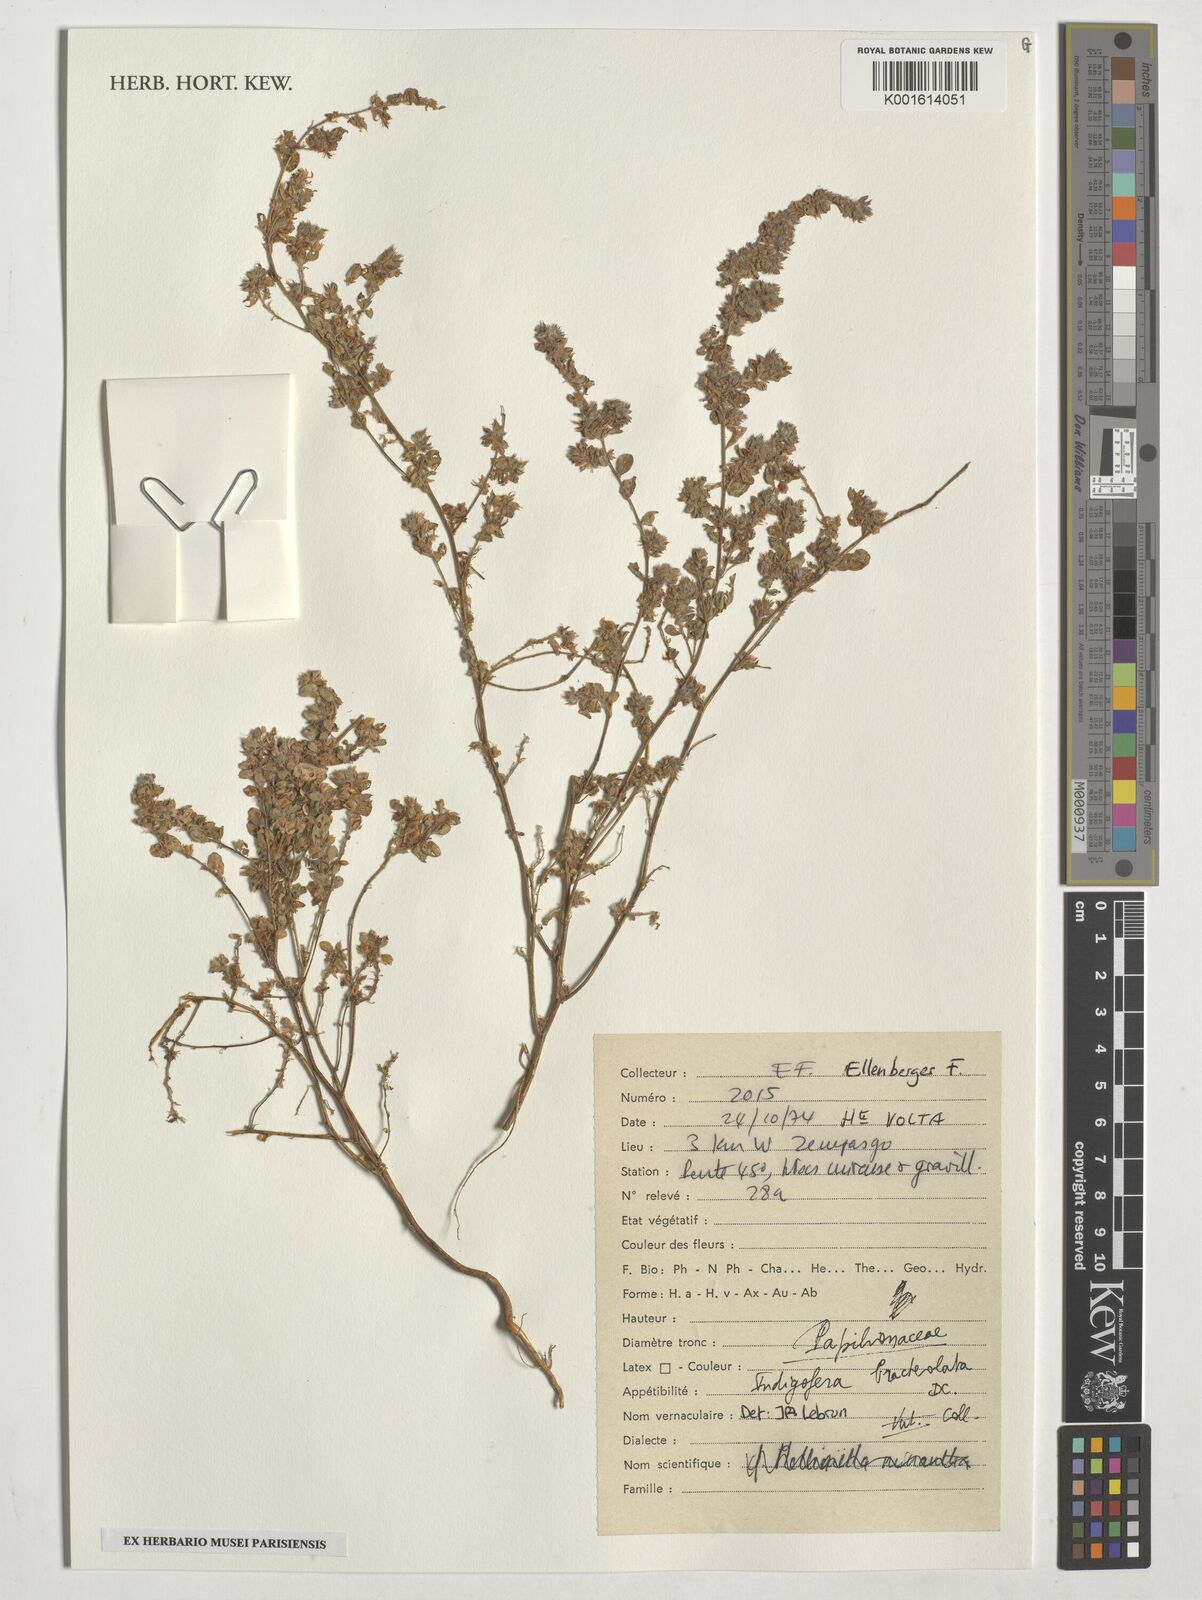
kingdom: Plantae
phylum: Tracheophyta
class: Magnoliopsida
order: Fabales
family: Fabaceae
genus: Indigofera
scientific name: Indigofera bracteolata
